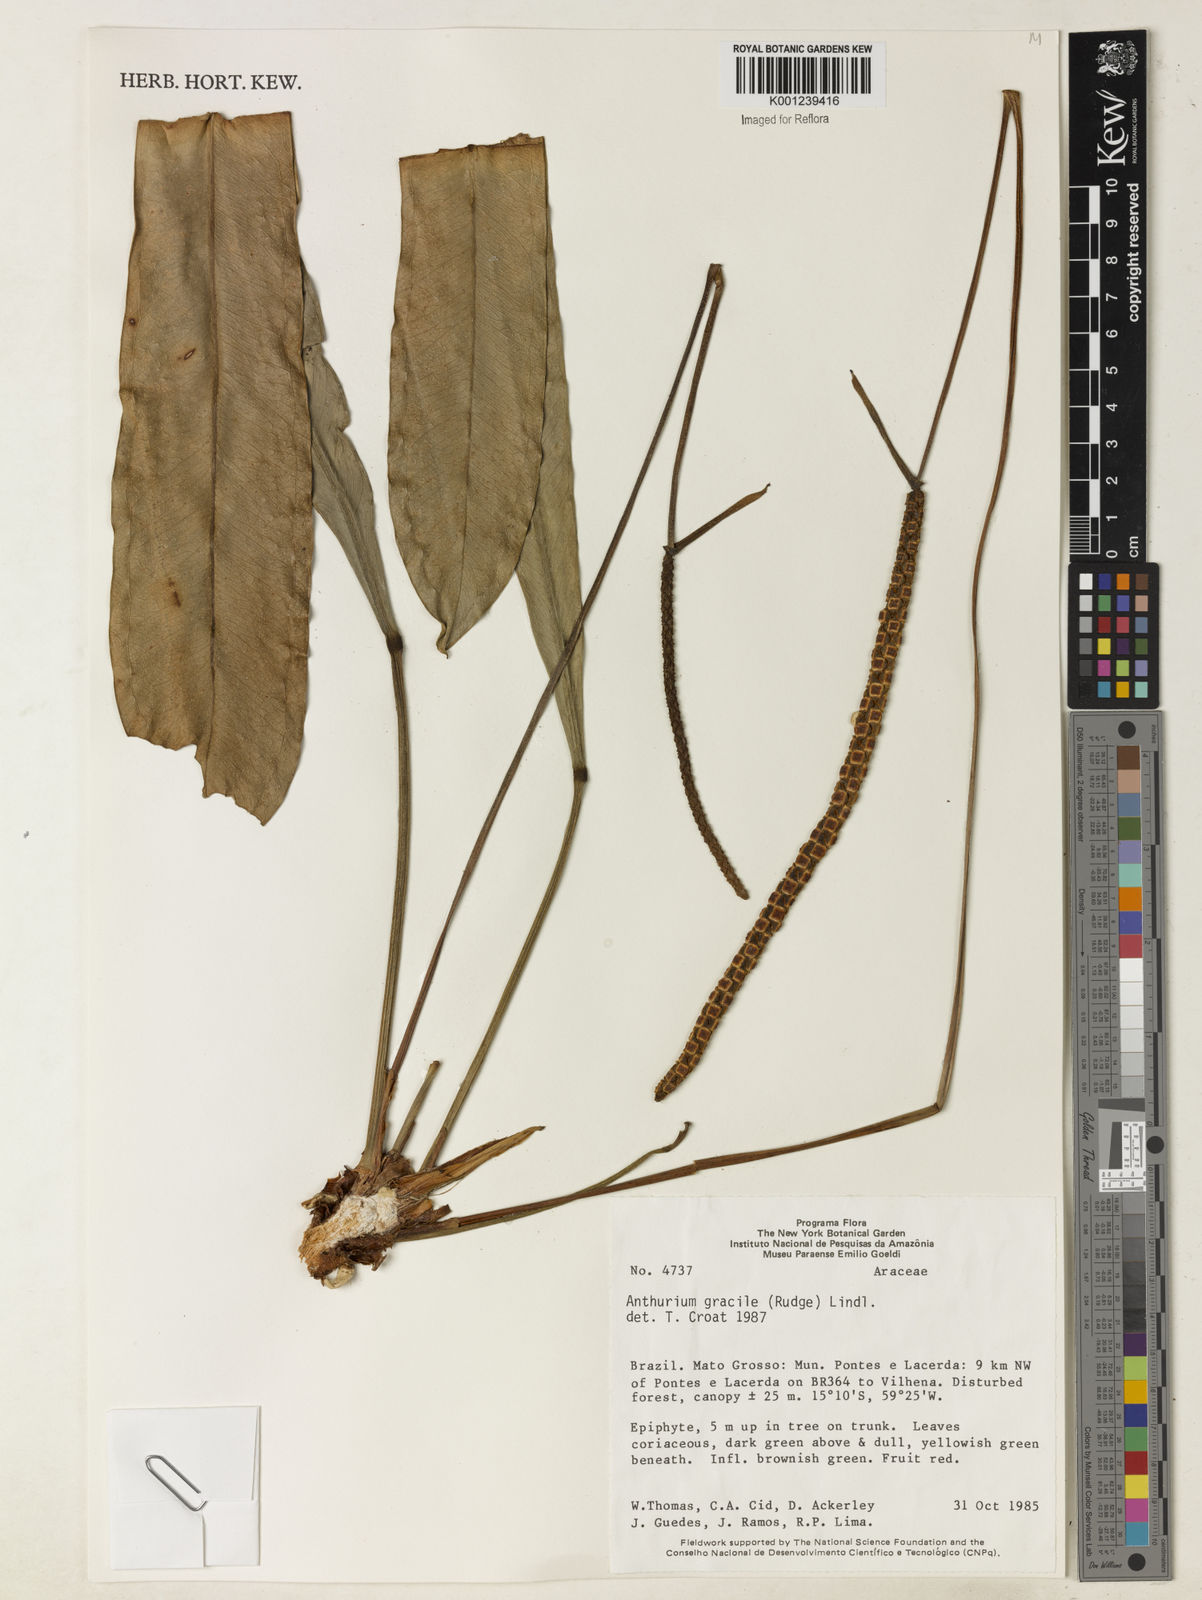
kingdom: Plantae
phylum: Tracheophyta
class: Liliopsida
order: Alismatales
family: Araceae
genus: Anthurium
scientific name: Anthurium gracile
